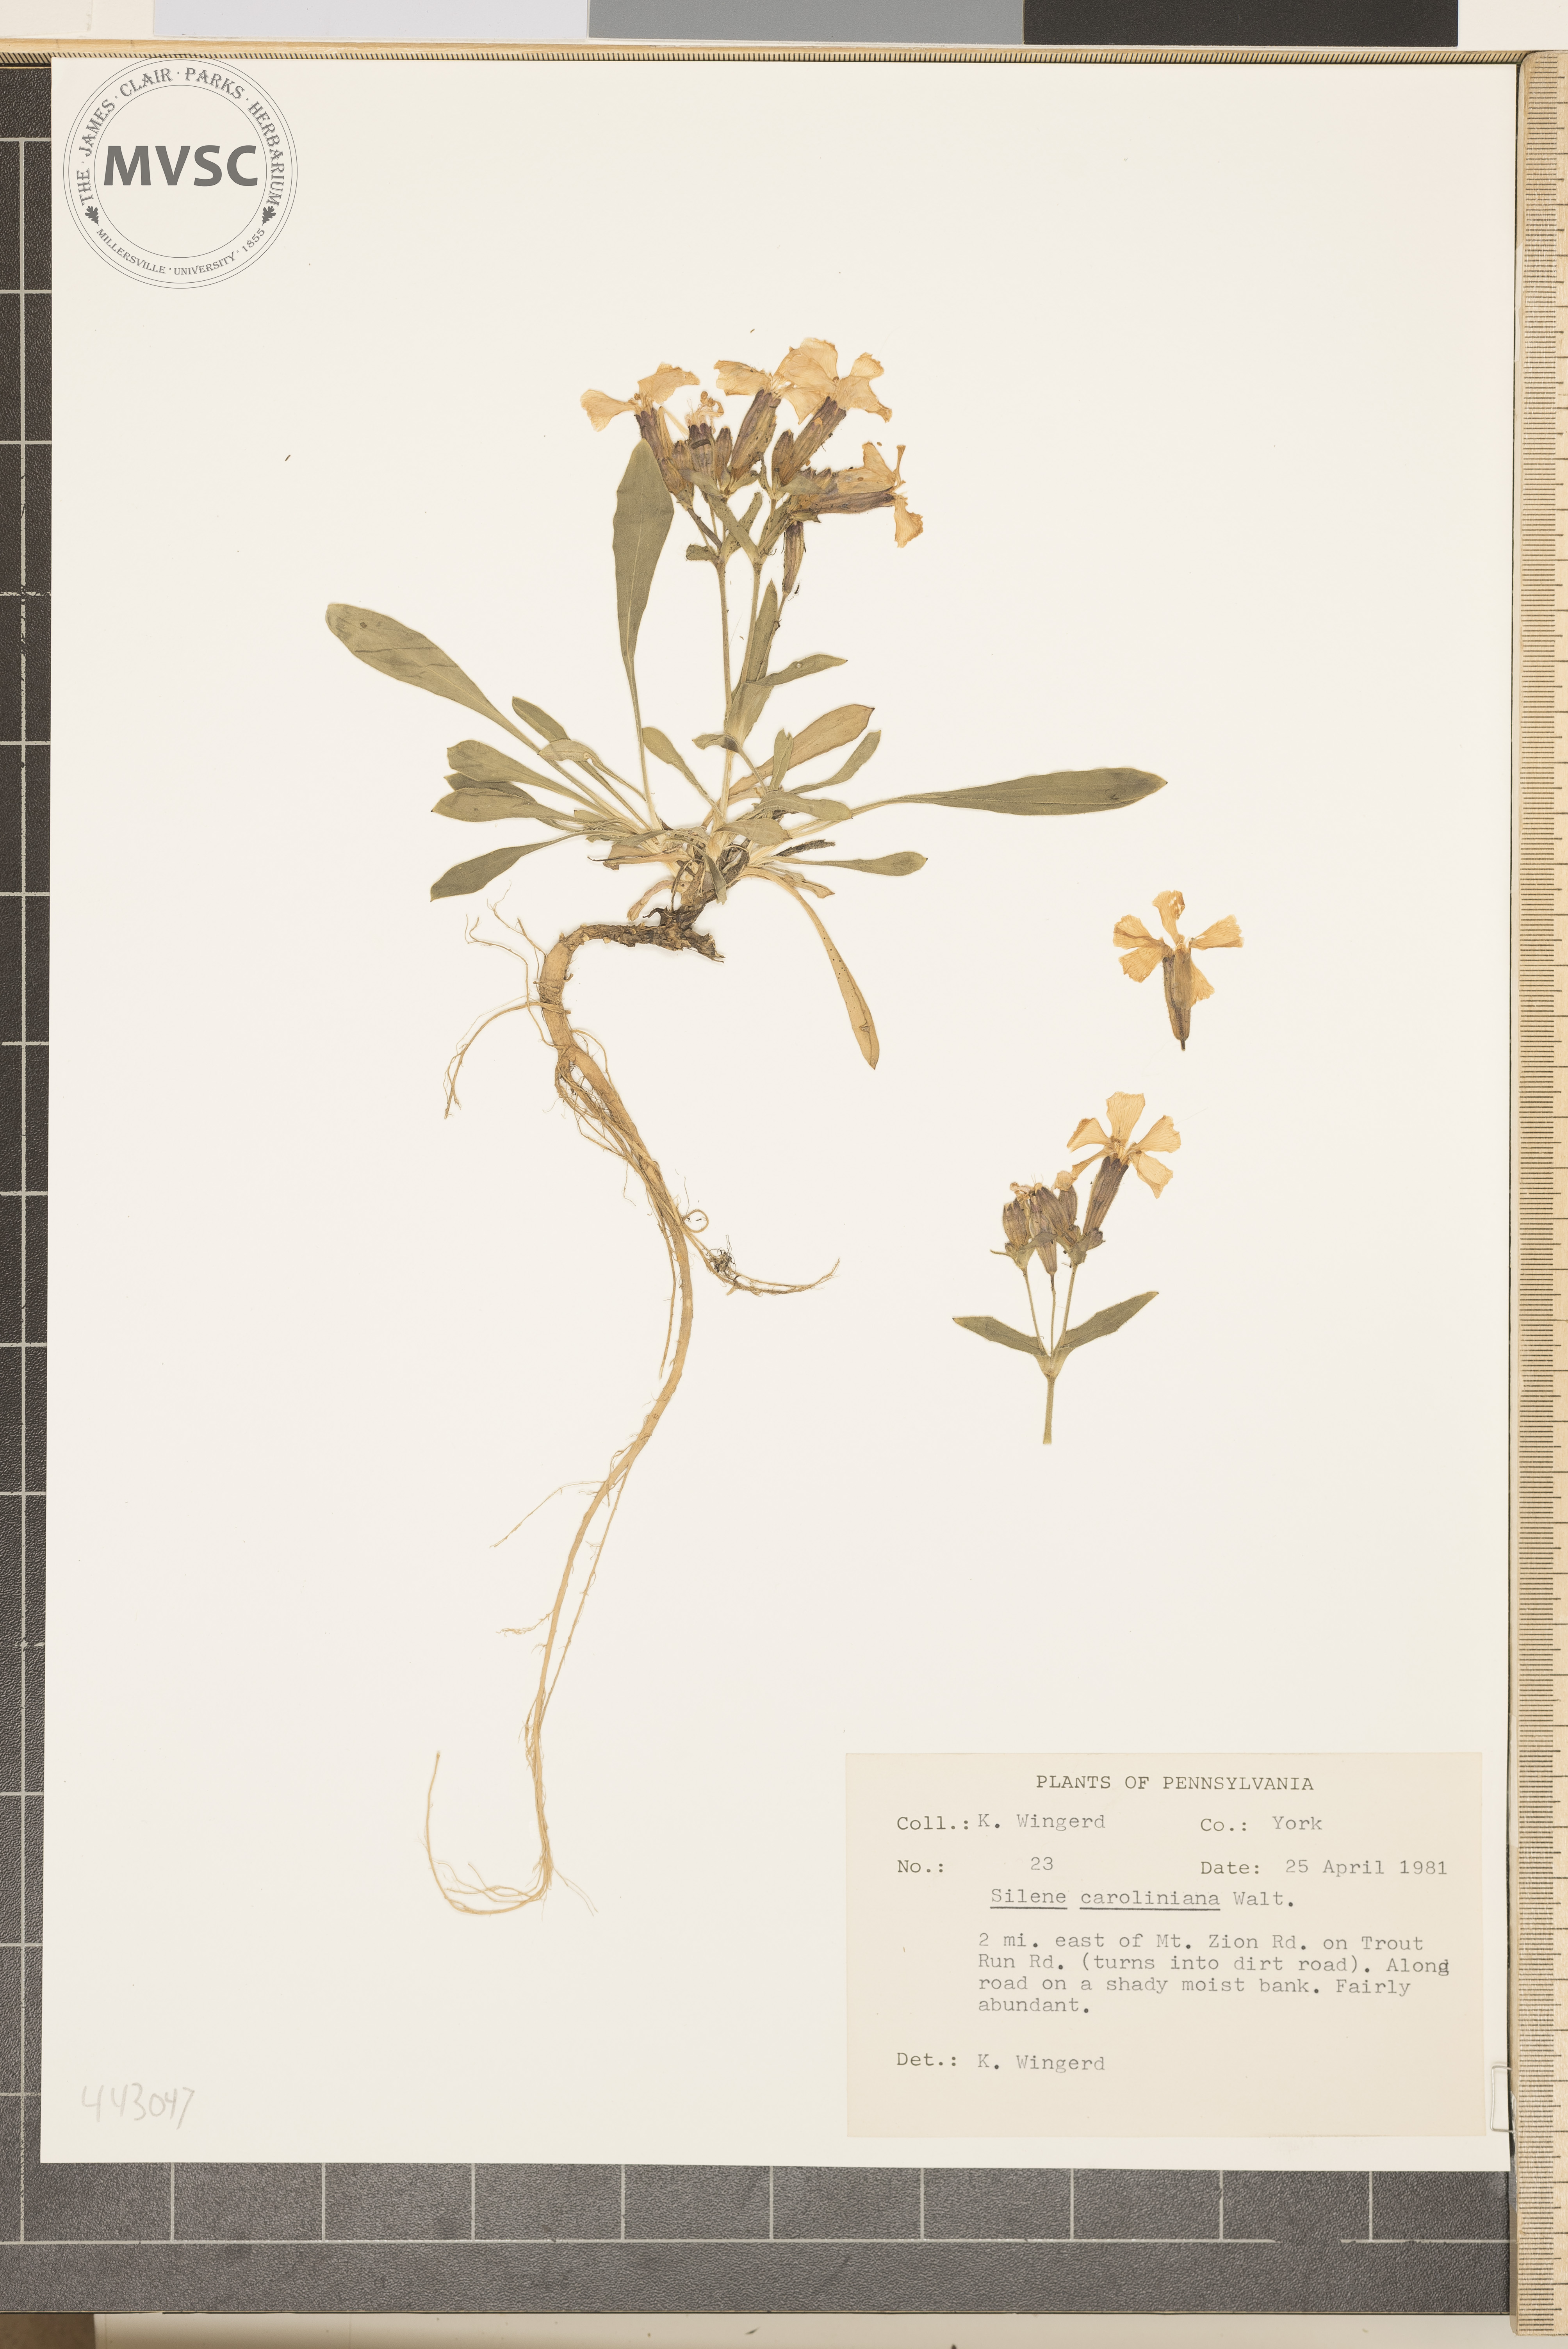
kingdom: Plantae
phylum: Tracheophyta
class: Magnoliopsida
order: Caryophyllales
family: Caryophyllaceae
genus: Silene
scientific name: Silene caroliniana
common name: Sticky catchfly
